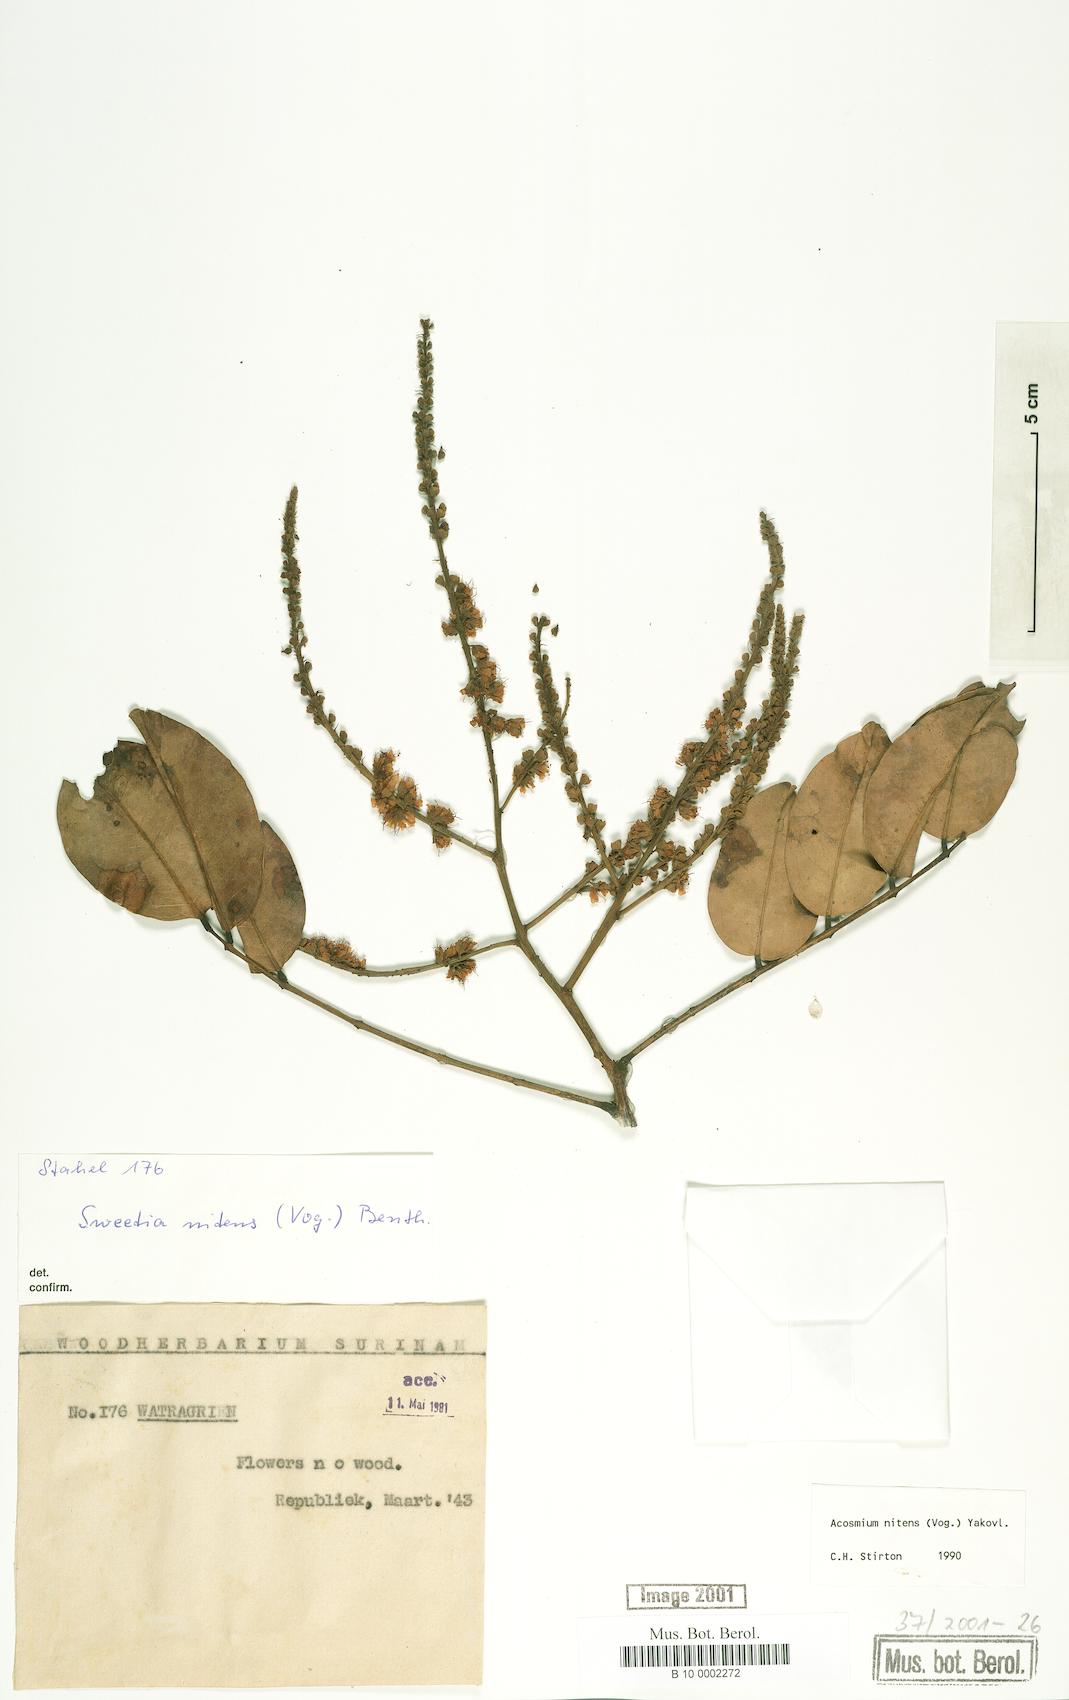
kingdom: Plantae
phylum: Tracheophyta
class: Magnoliopsida
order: Fabales
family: Fabaceae
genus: Leptolobium
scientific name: Leptolobium nitens
